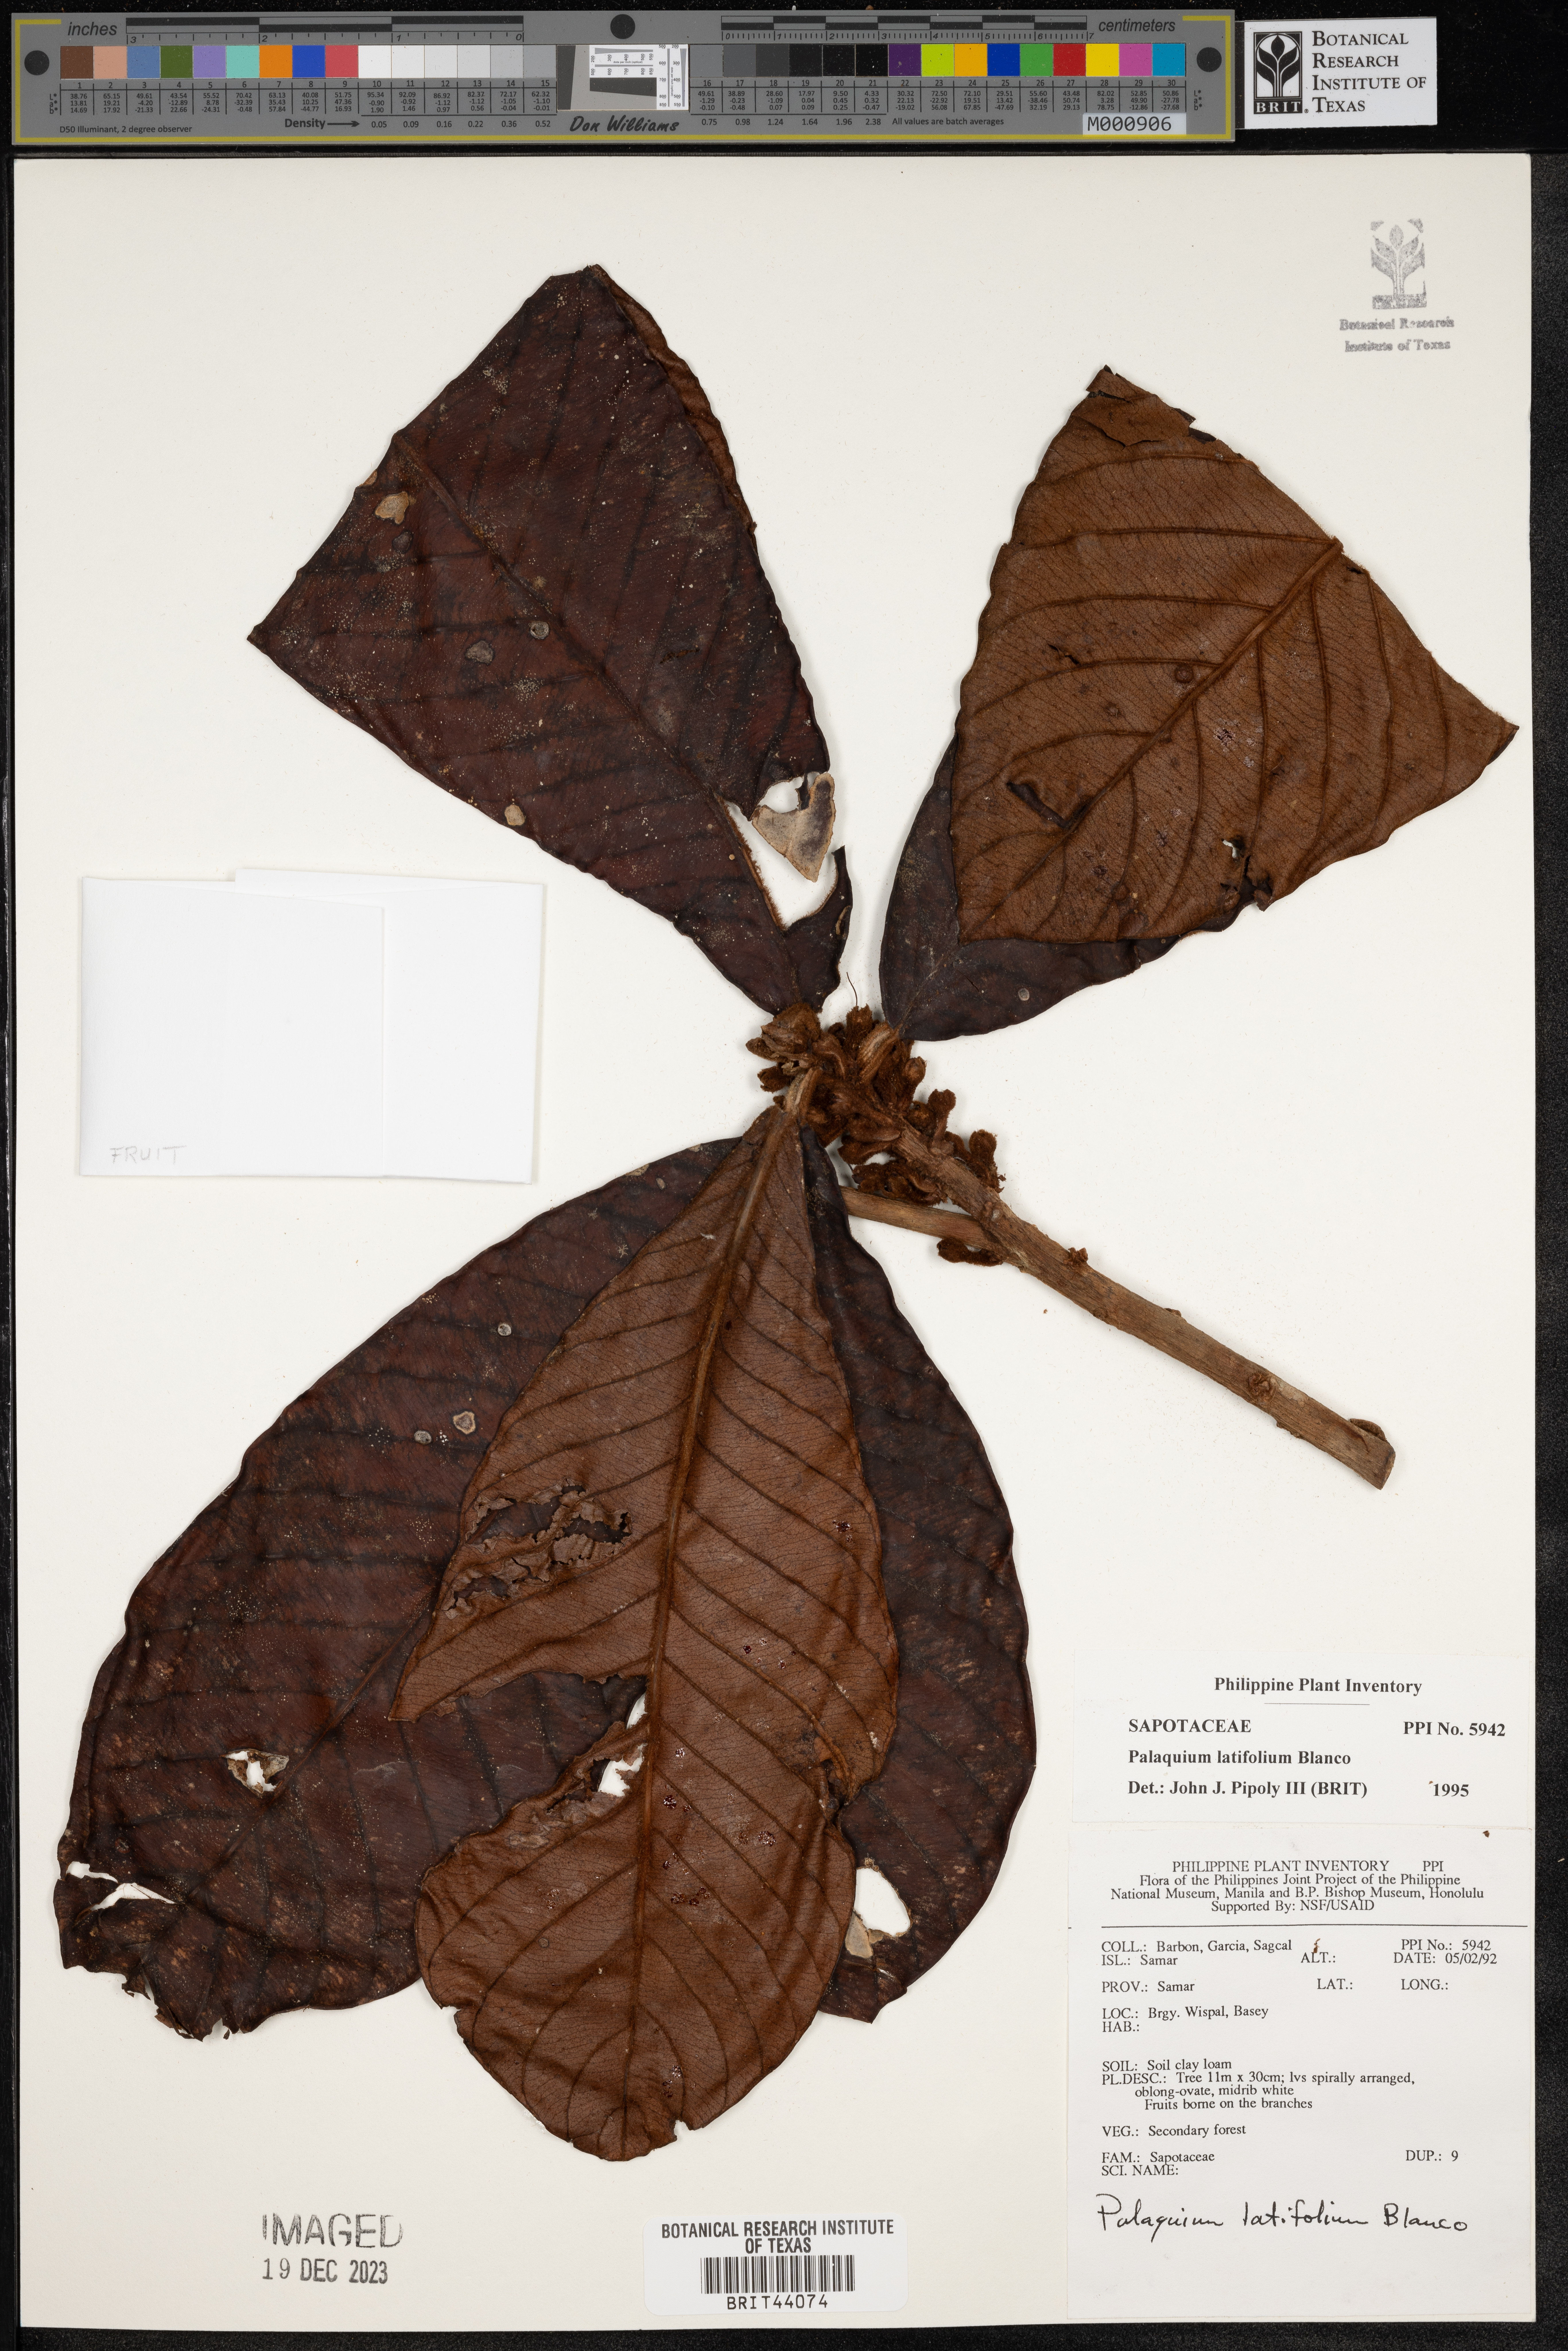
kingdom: Plantae
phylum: Tracheophyta
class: Magnoliopsida
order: Ericales
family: Sapotaceae
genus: Palaquium
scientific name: Palaquium luzoniense
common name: Red nato
